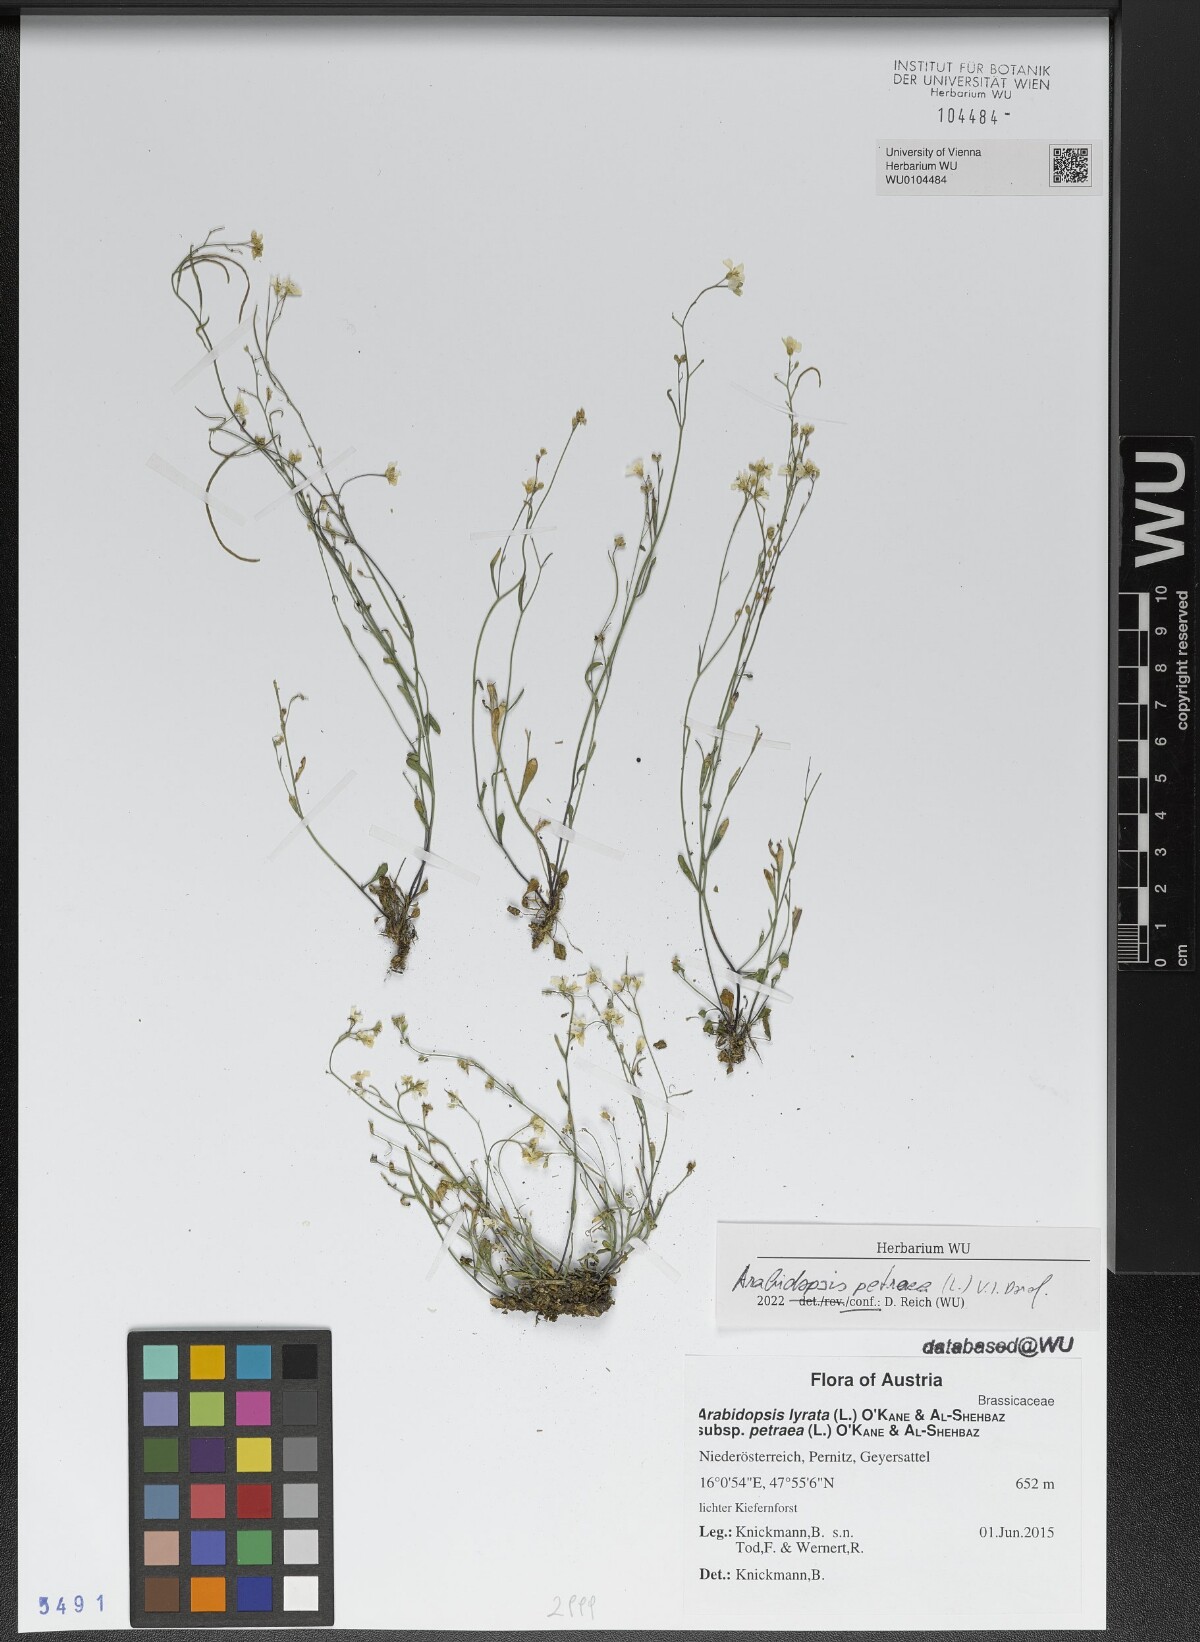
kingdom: Plantae
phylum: Tracheophyta
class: Magnoliopsida
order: Brassicales
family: Brassicaceae
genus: Arabidopsis
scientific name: Arabidopsis petraea
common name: Northern rock-cress
